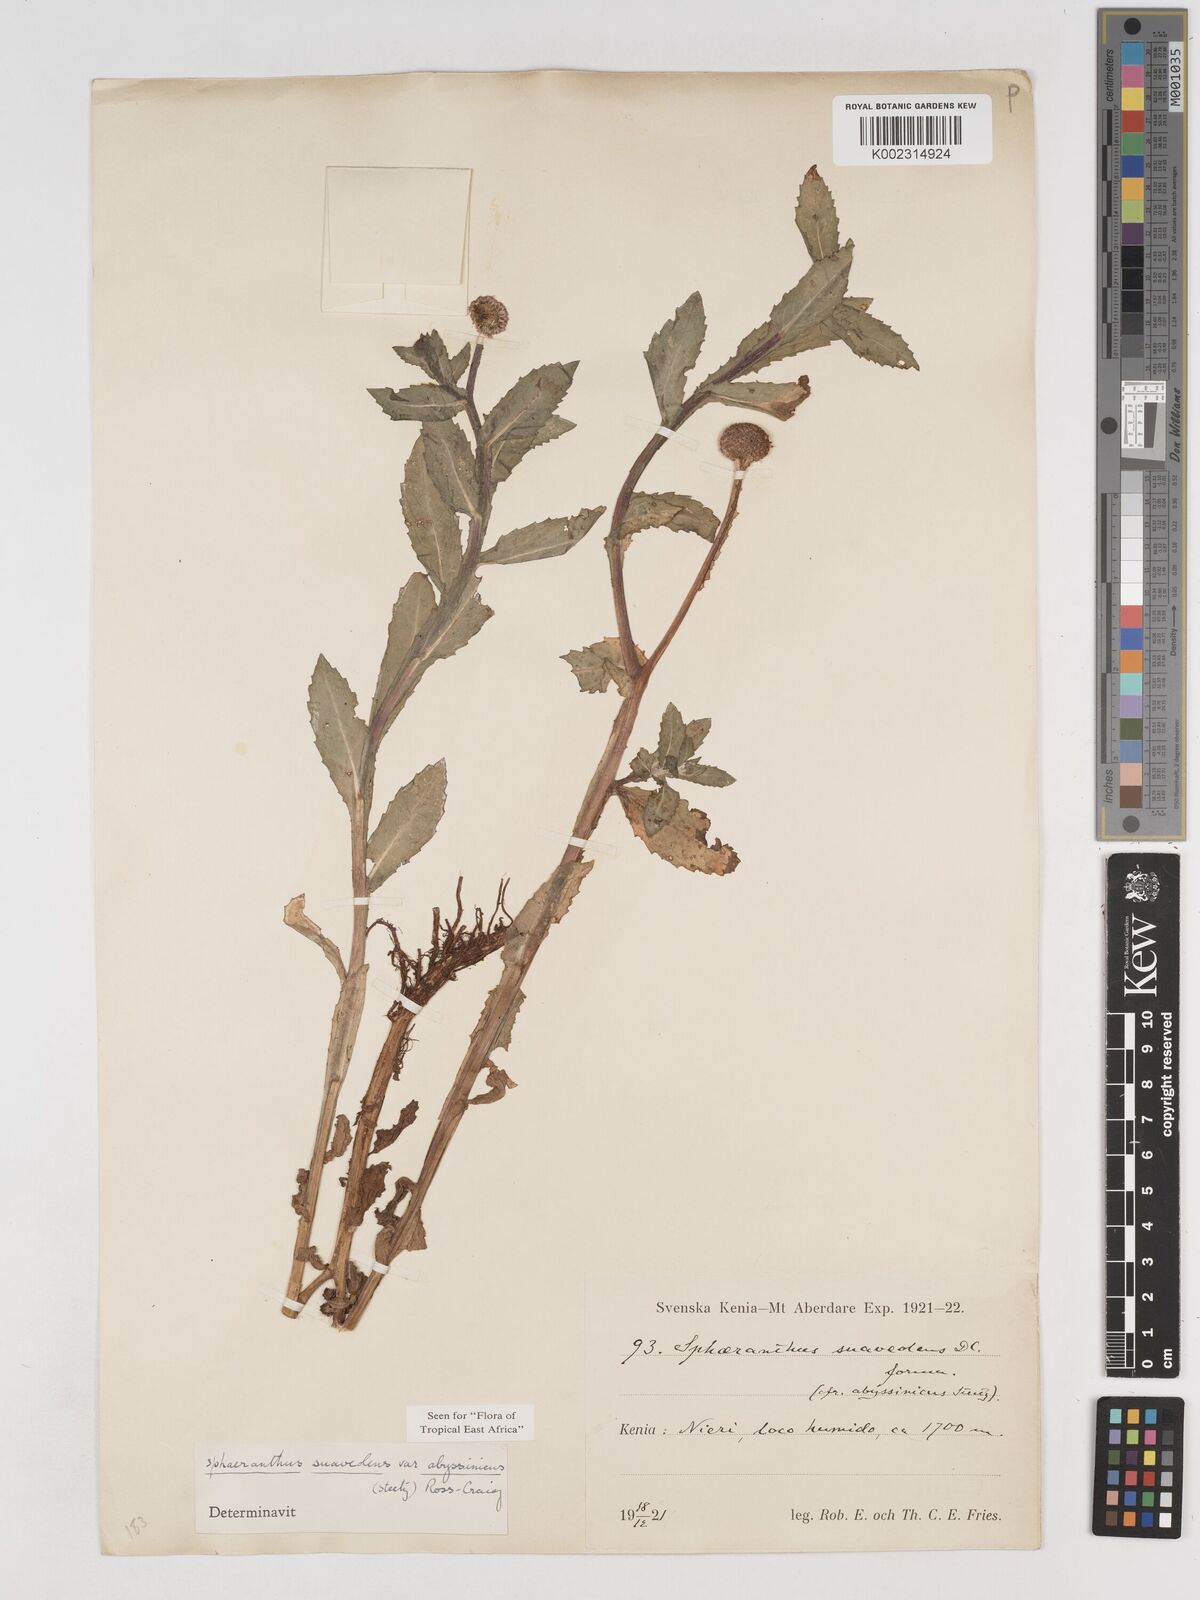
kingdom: Plantae
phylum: Tracheophyta
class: Magnoliopsida
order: Asterales
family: Asteraceae
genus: Sphaeranthus
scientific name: Sphaeranthus suaveolens
